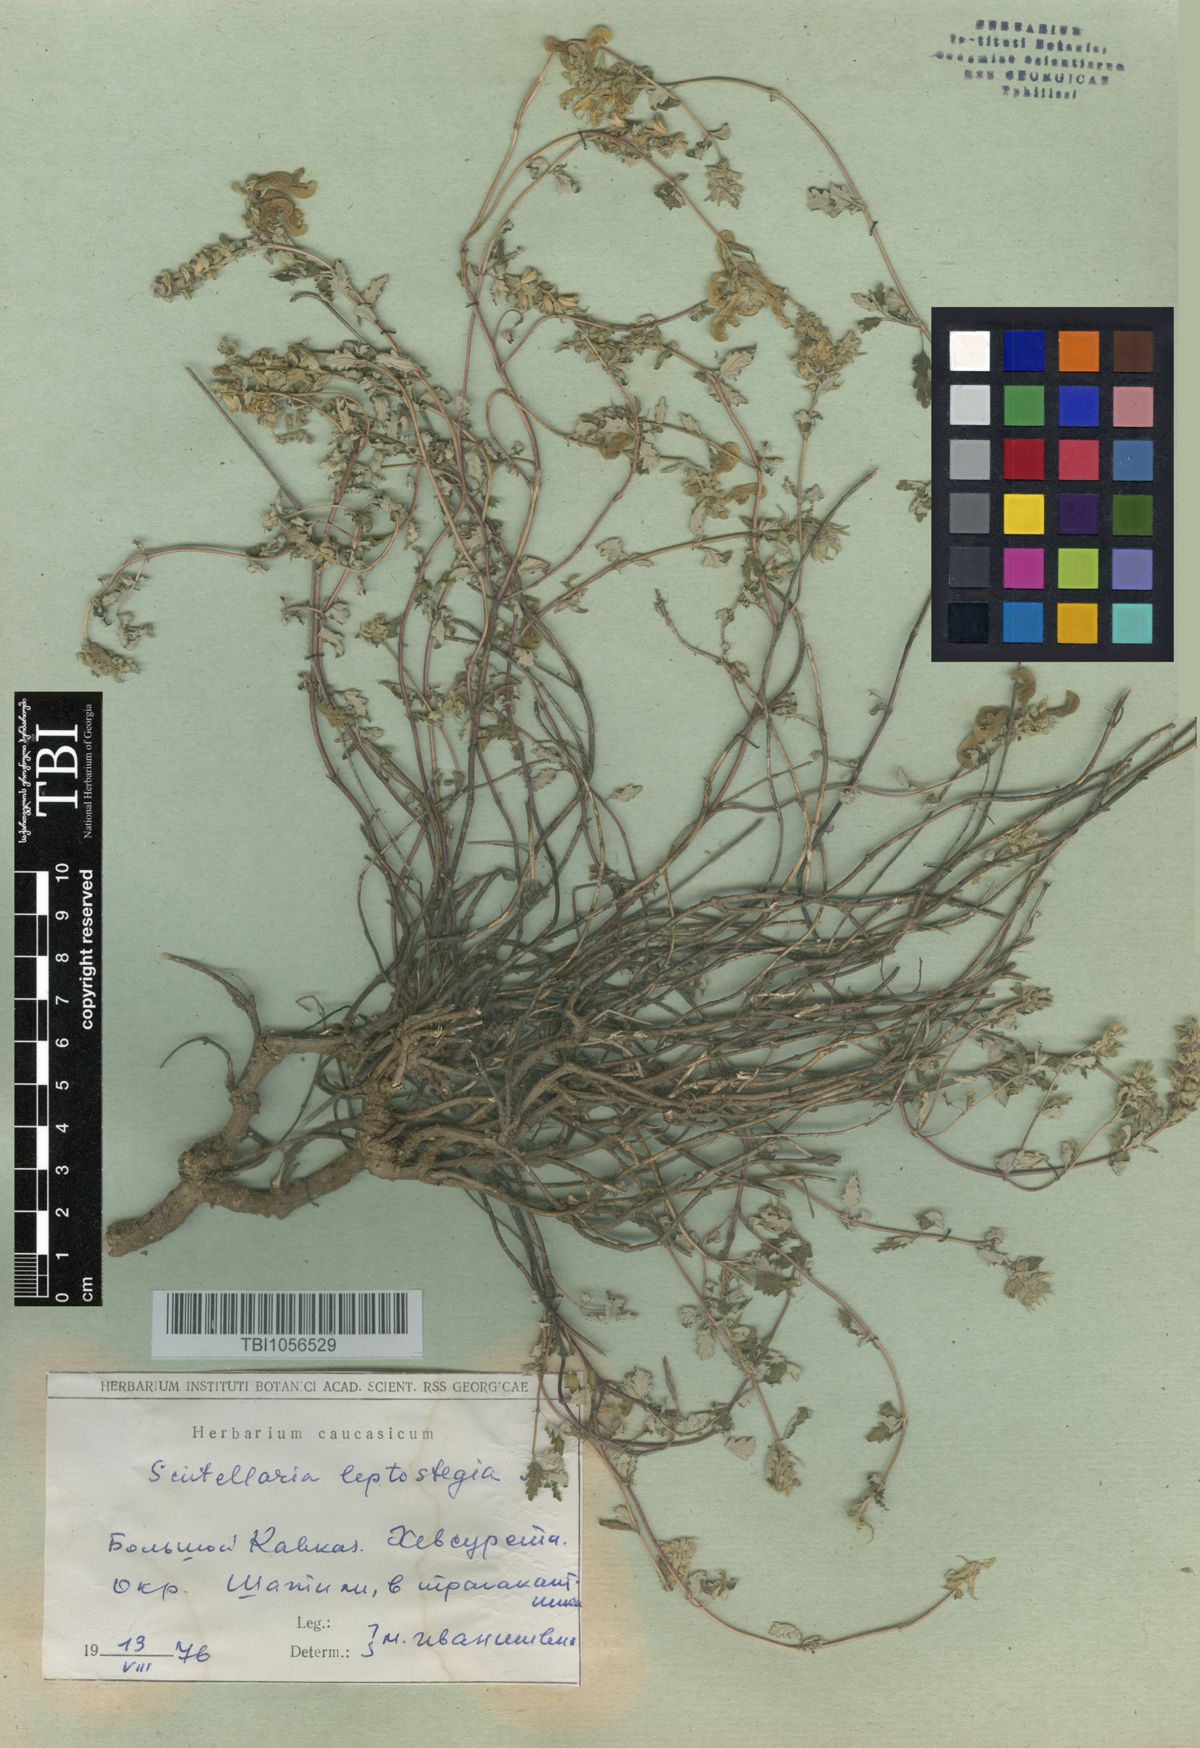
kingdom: Plantae
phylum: Tracheophyta
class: Magnoliopsida
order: Lamiales
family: Lamiaceae
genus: Scutellaria
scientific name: Scutellaria leptostegia
